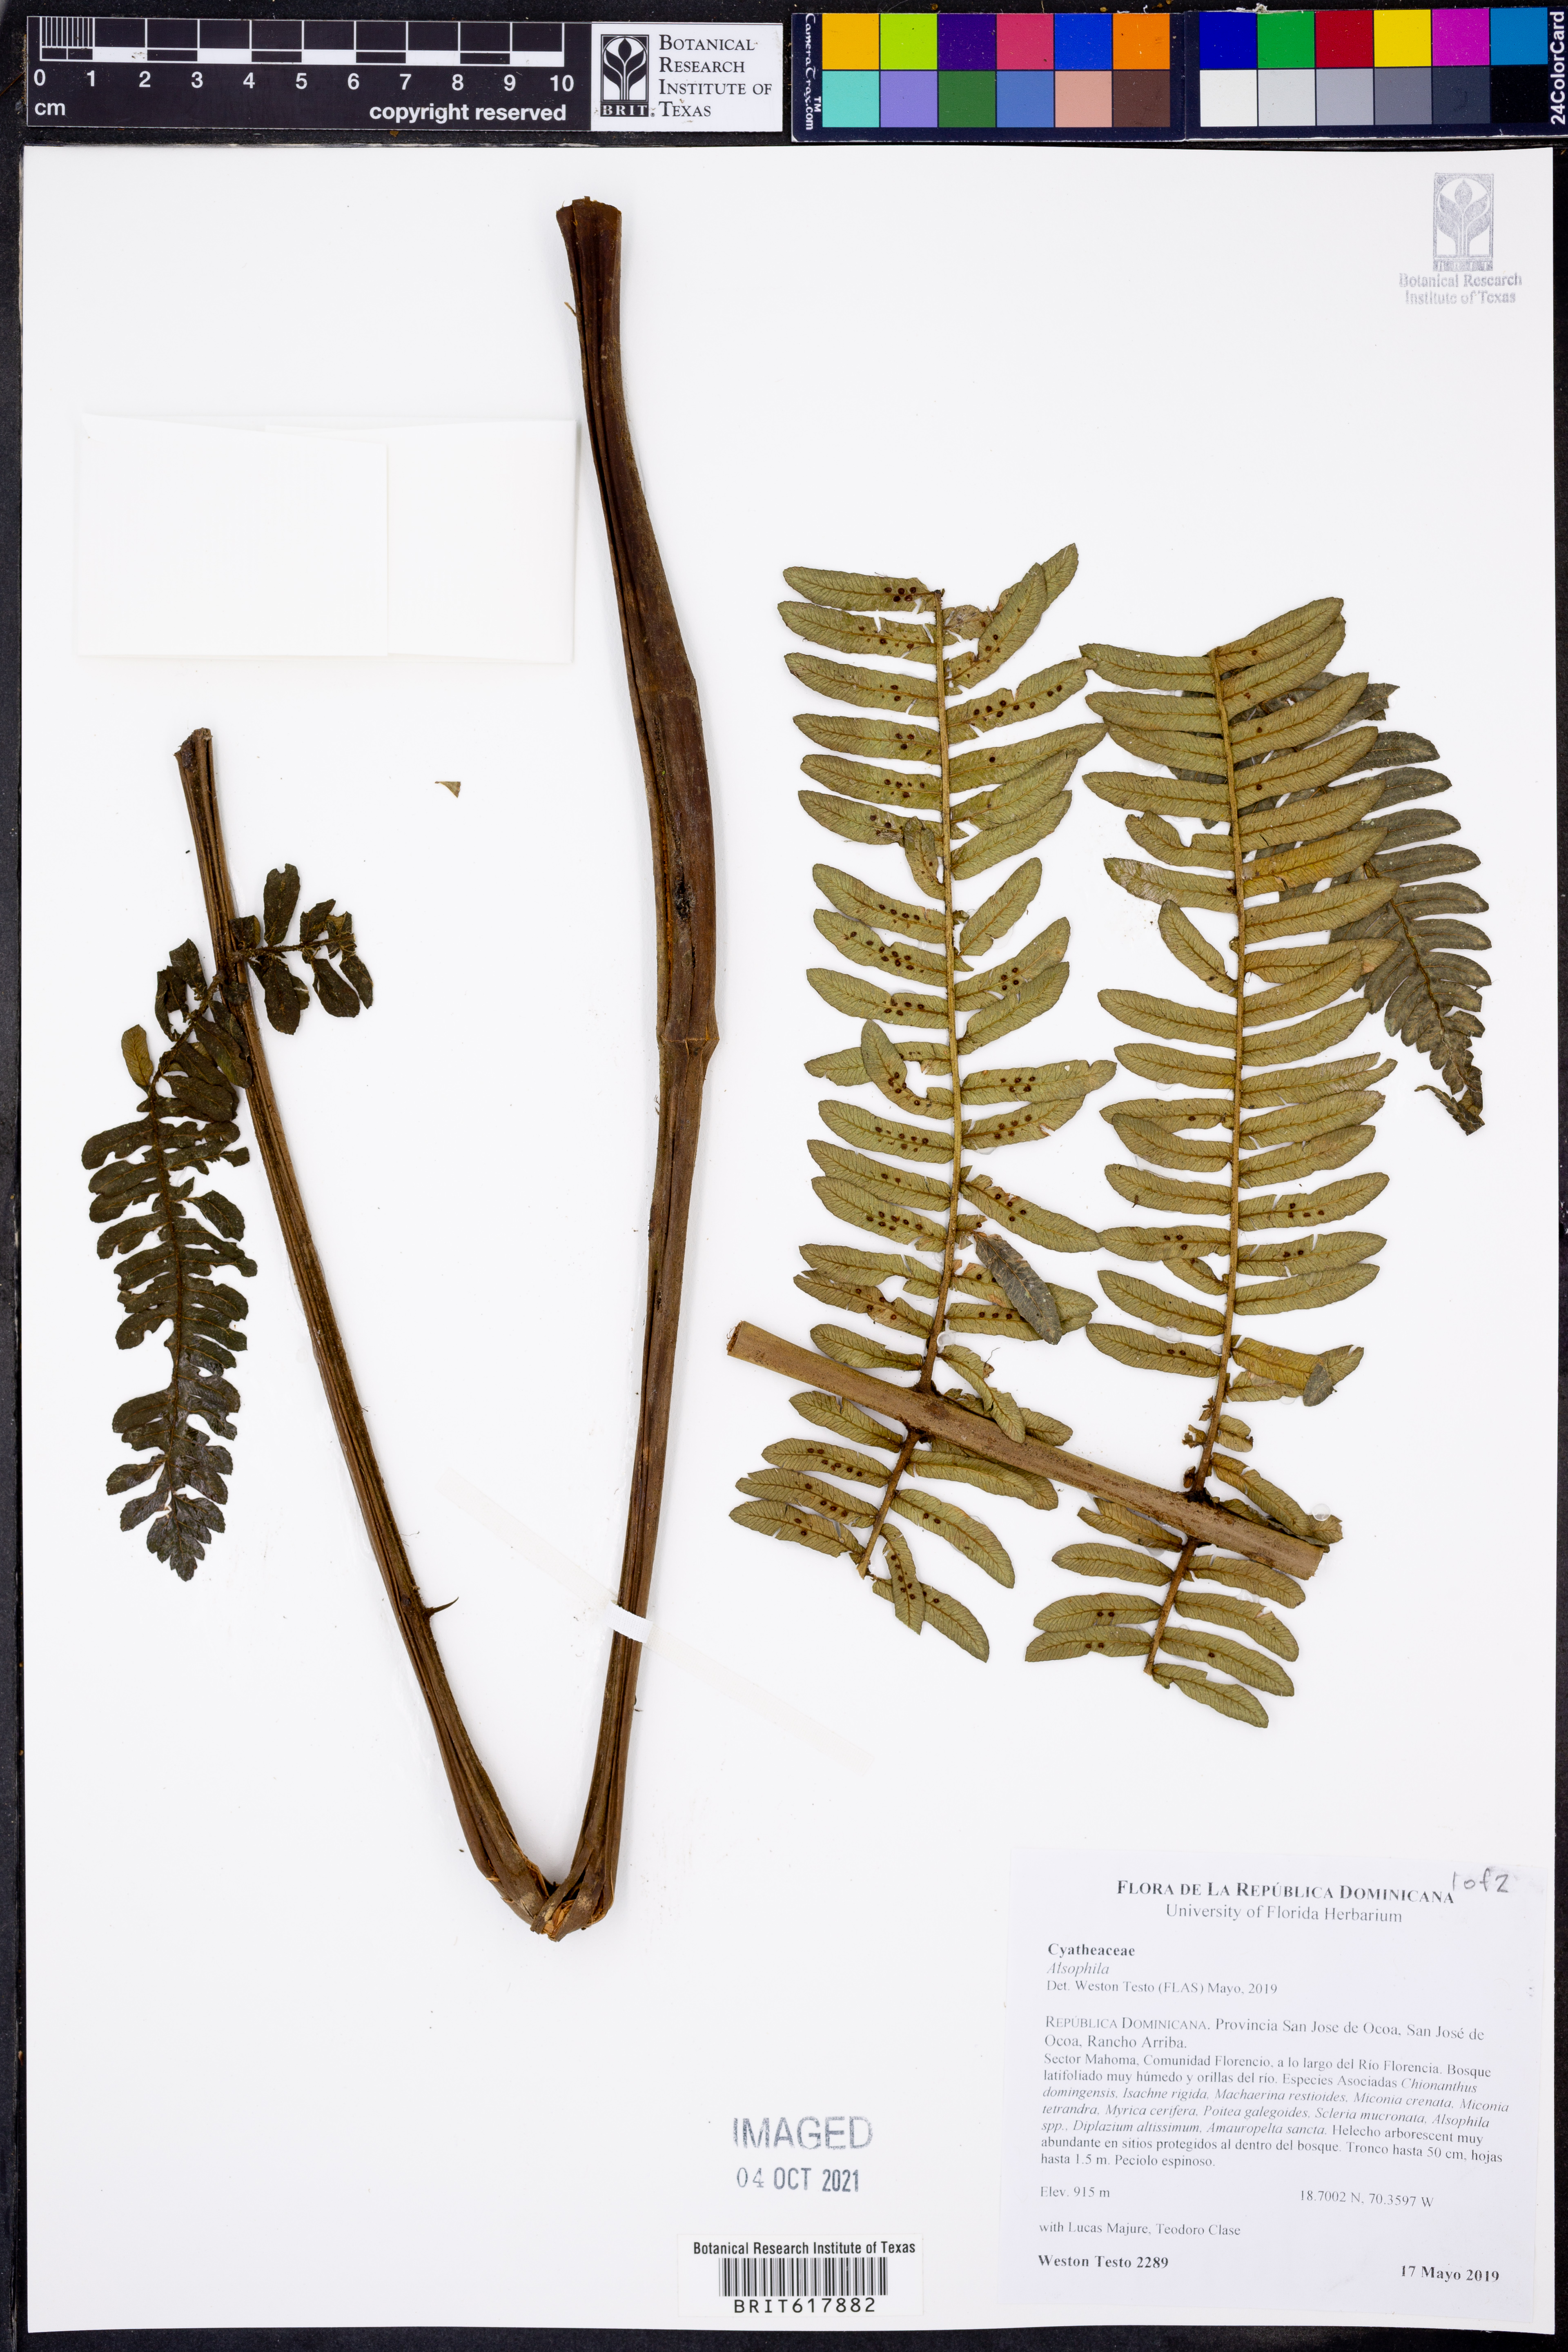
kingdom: Plantae
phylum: Tracheophyta
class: Polypodiopsida
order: Cyatheales
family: Cyatheaceae
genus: Alsophila
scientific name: Alsophila
